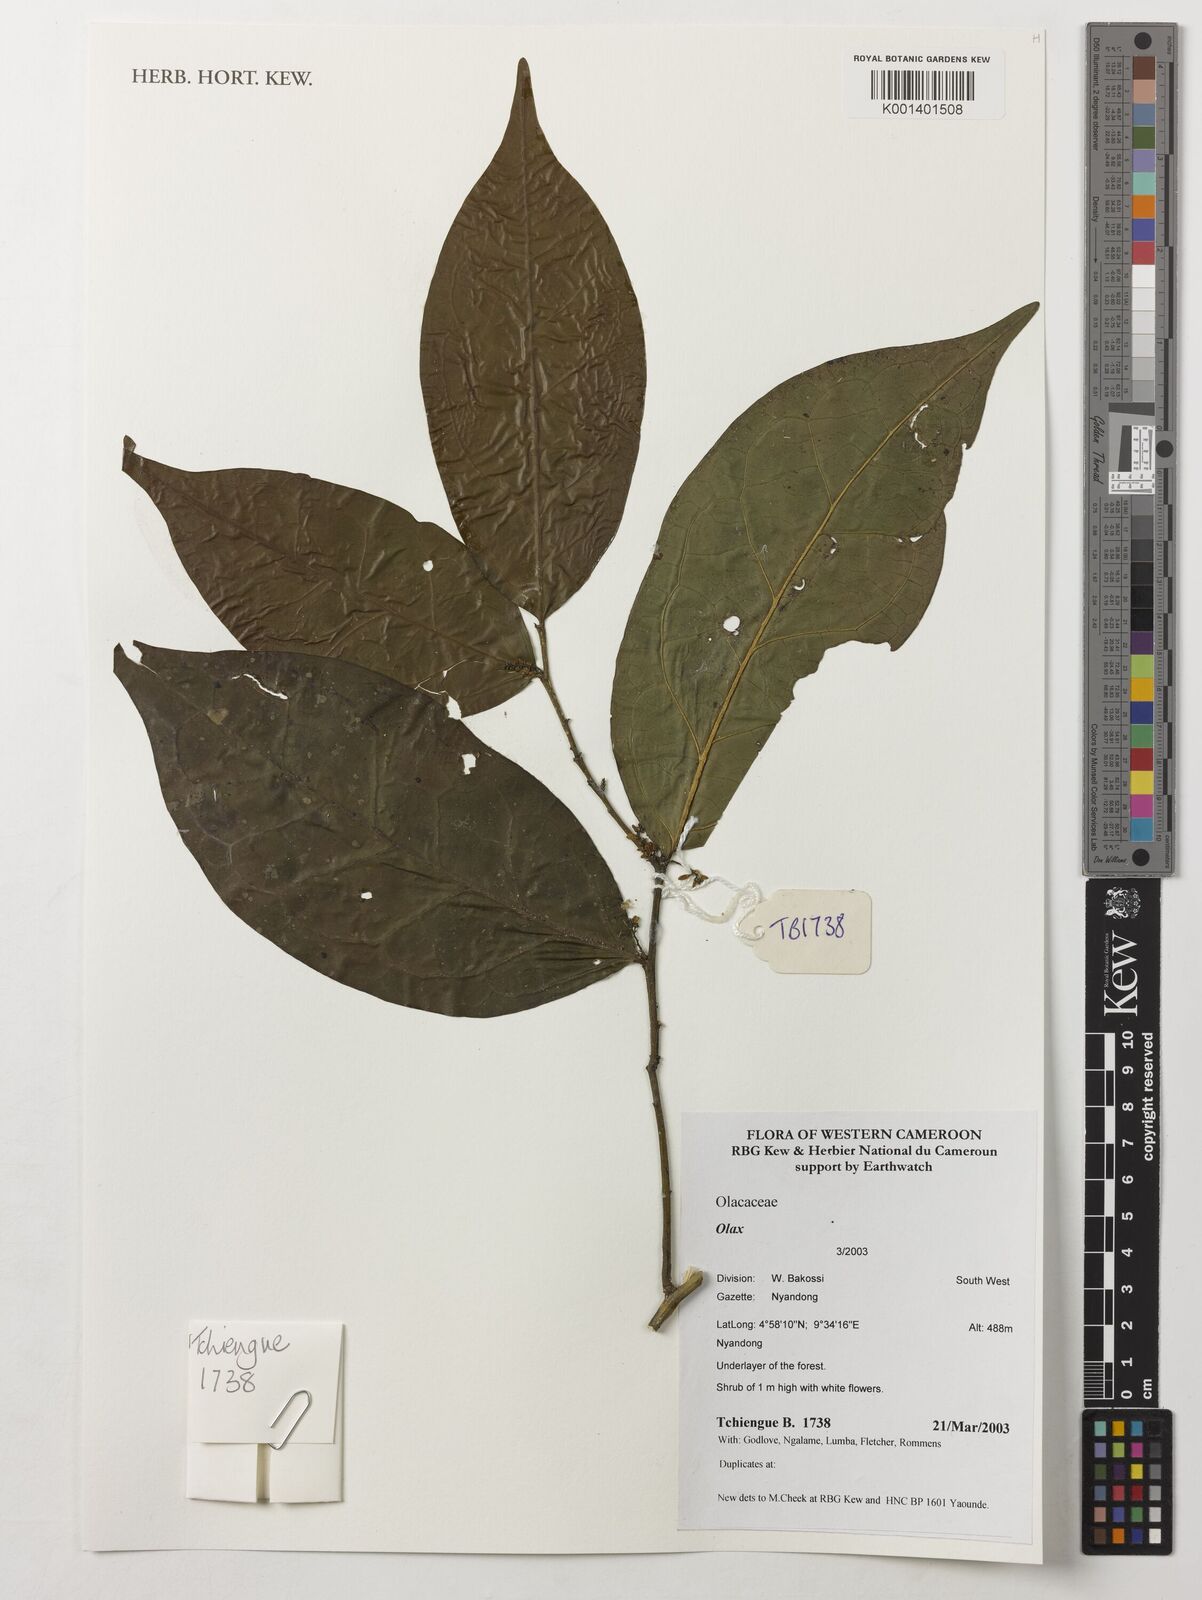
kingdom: Plantae
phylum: Tracheophyta
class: Magnoliopsida
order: Santalales
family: Olacaceae
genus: Olax
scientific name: Olax
